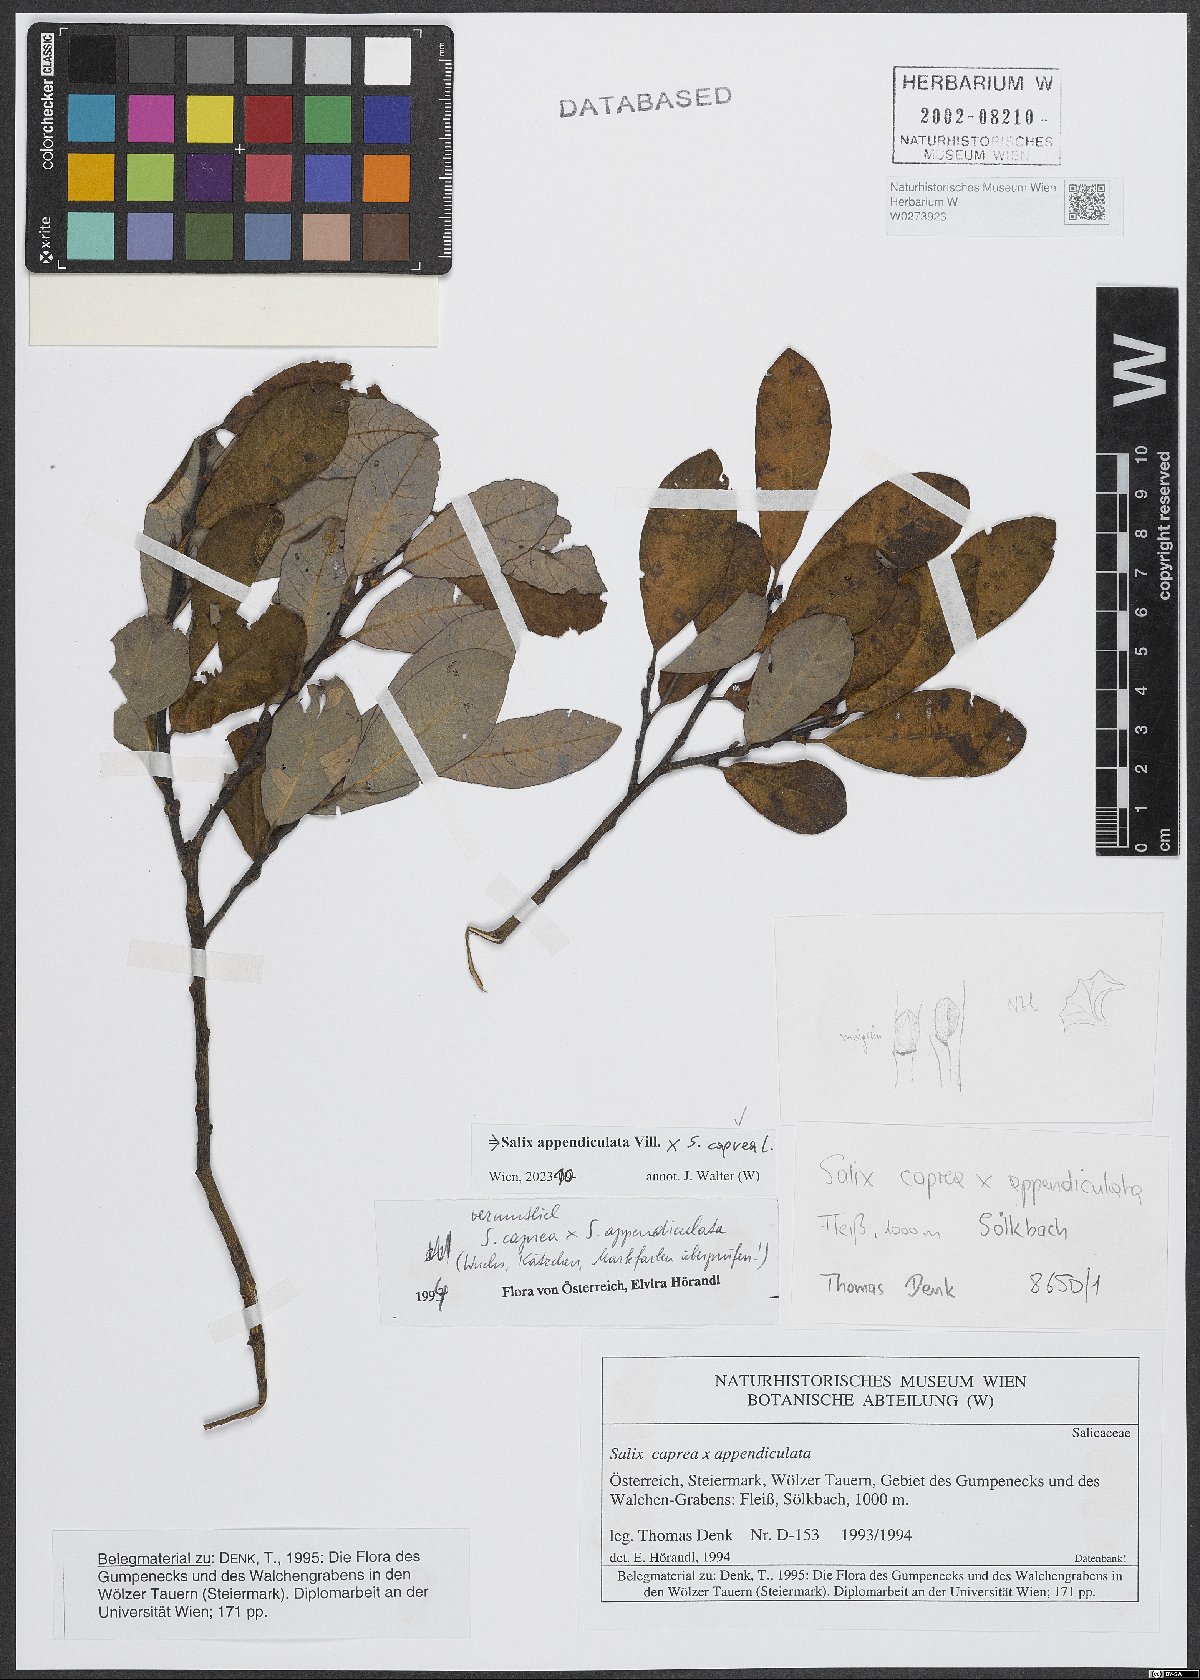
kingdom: Plantae
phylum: Tracheophyta
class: Magnoliopsida
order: Malpighiales
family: Salicaceae
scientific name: Salicaceae
